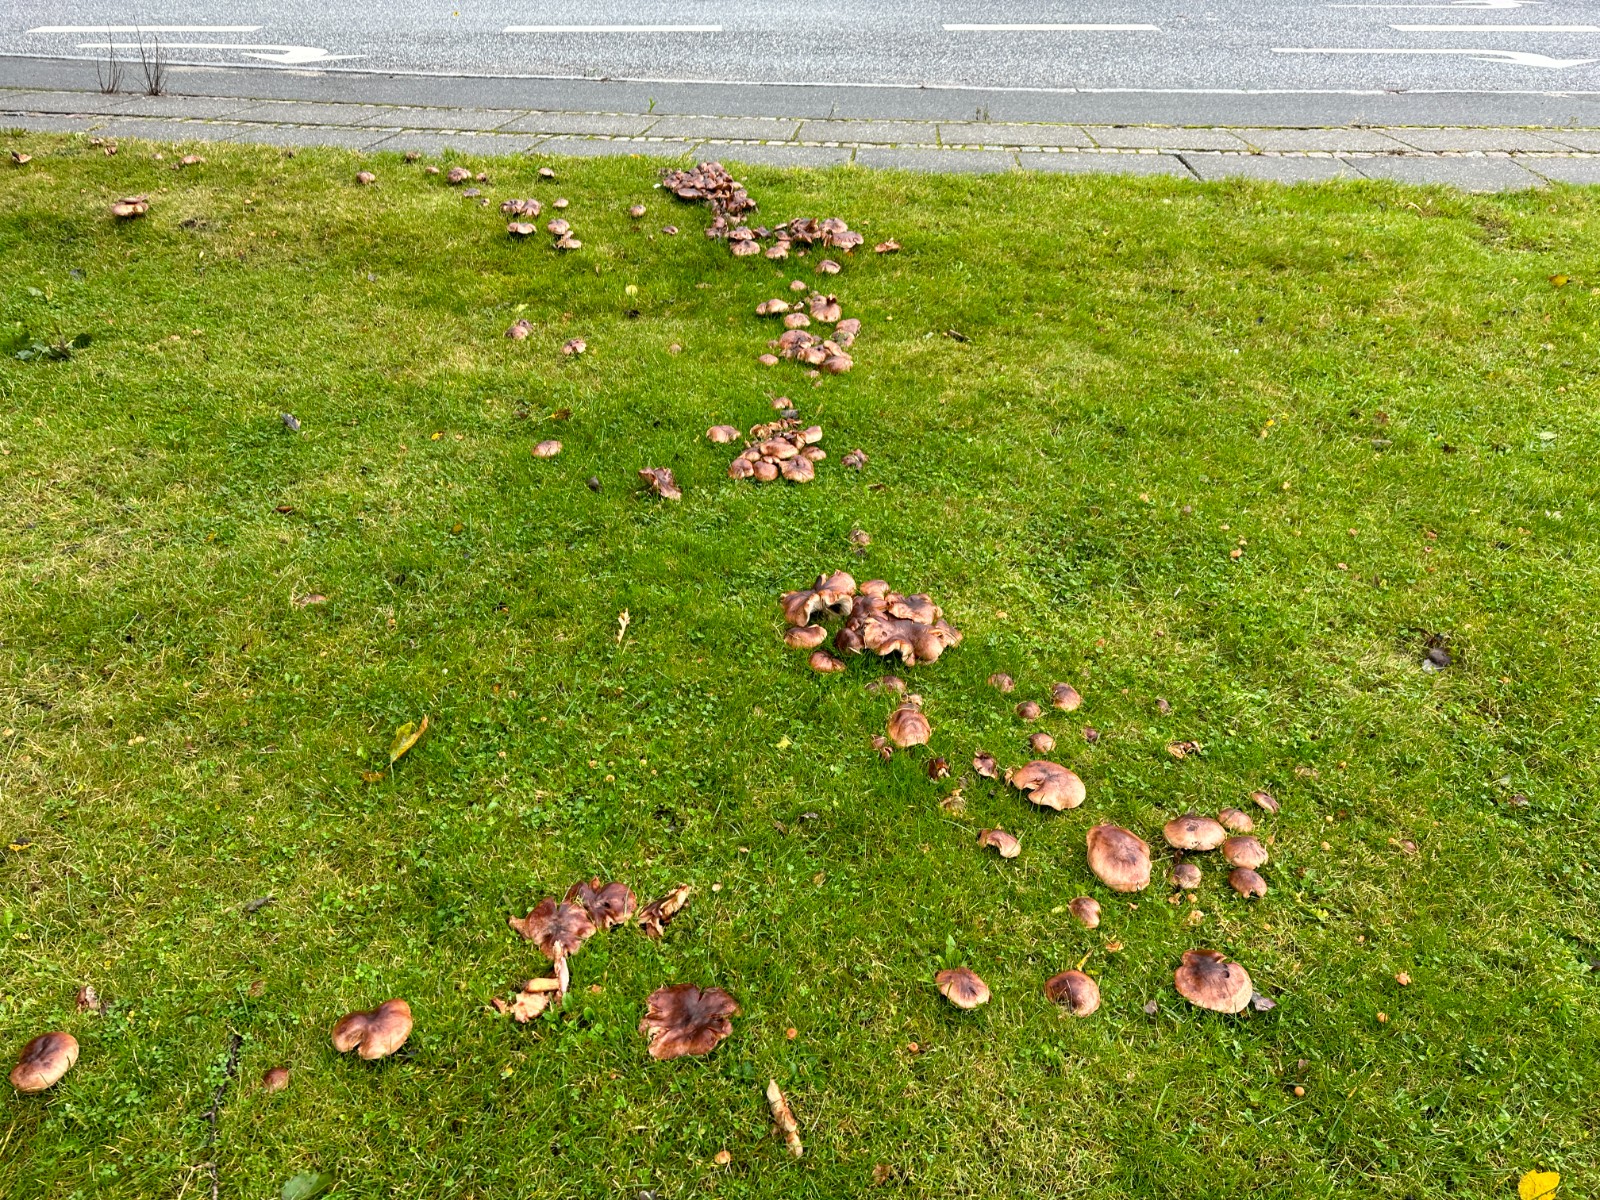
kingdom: Fungi
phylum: Basidiomycota
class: Agaricomycetes
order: Agaricales
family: Tricholomataceae
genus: Tricholoma
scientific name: Tricholoma populinum
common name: poppel-ridderhat
